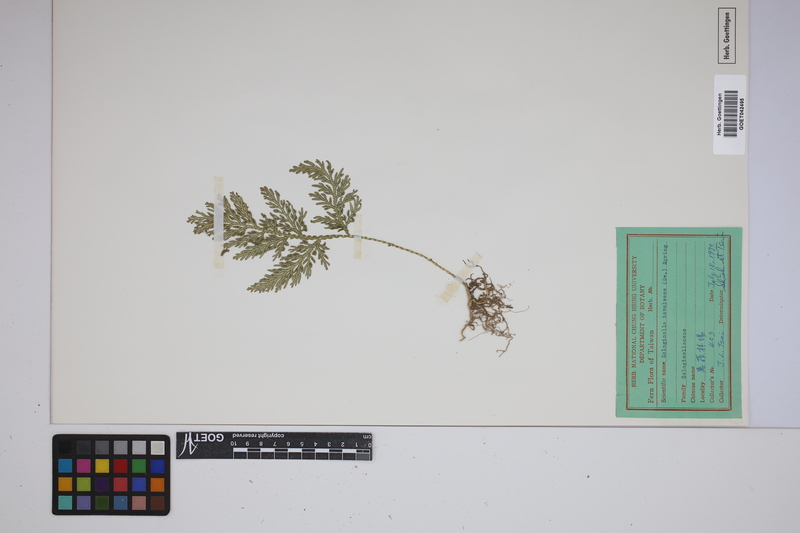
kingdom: Plantae
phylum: Tracheophyta
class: Lycopodiopsida
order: Selaginellales
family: Selaginellaceae
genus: Selaginella
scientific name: Selaginella involvens
